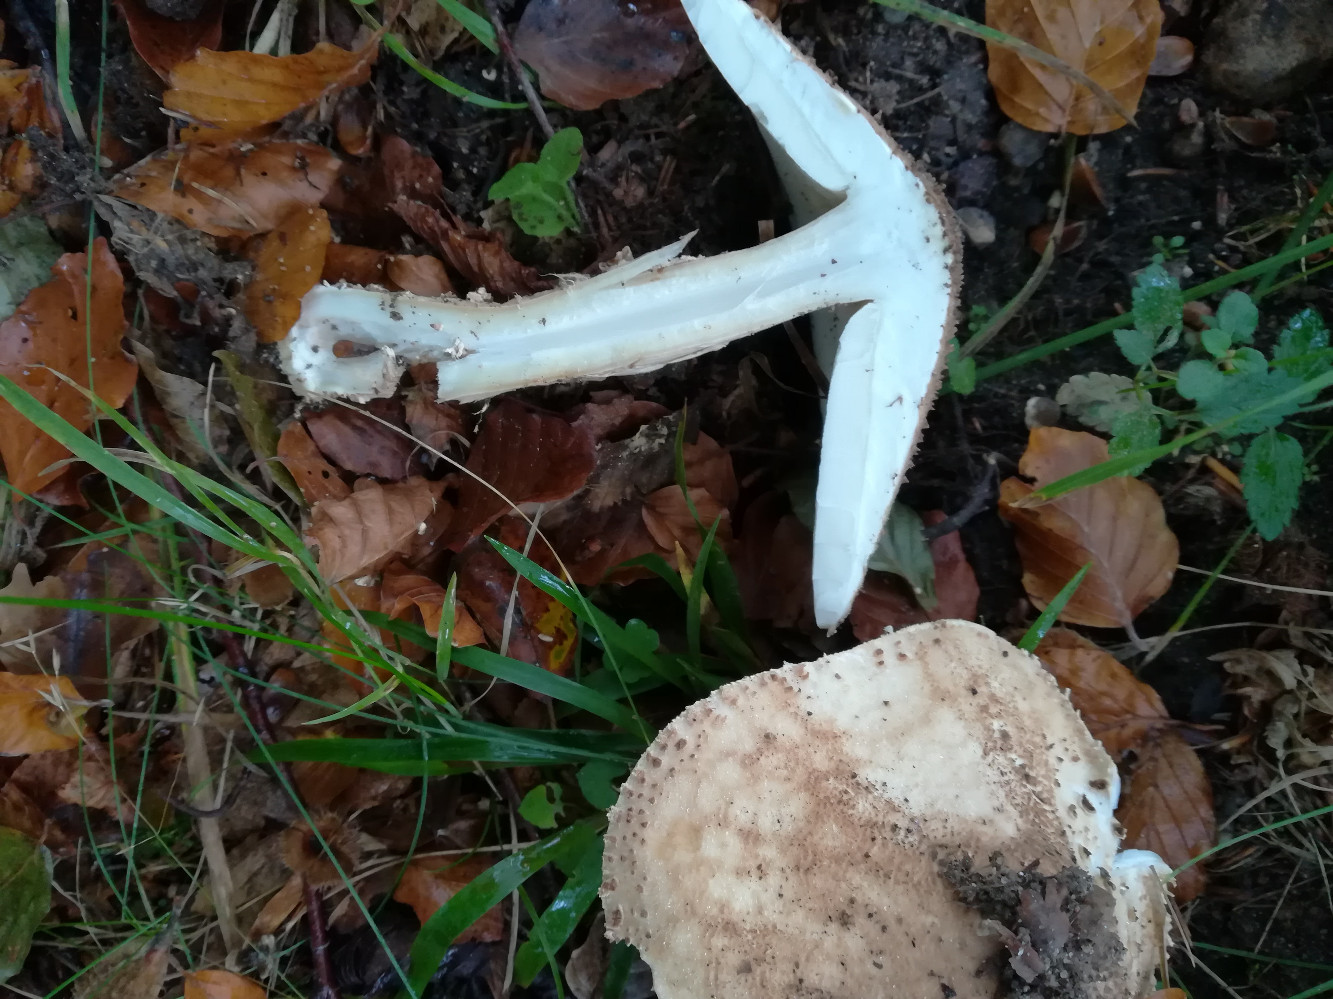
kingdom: Fungi
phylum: Basidiomycota
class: Agaricomycetes
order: Agaricales
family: Agaricaceae
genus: Echinoderma
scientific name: Echinoderma asperum
